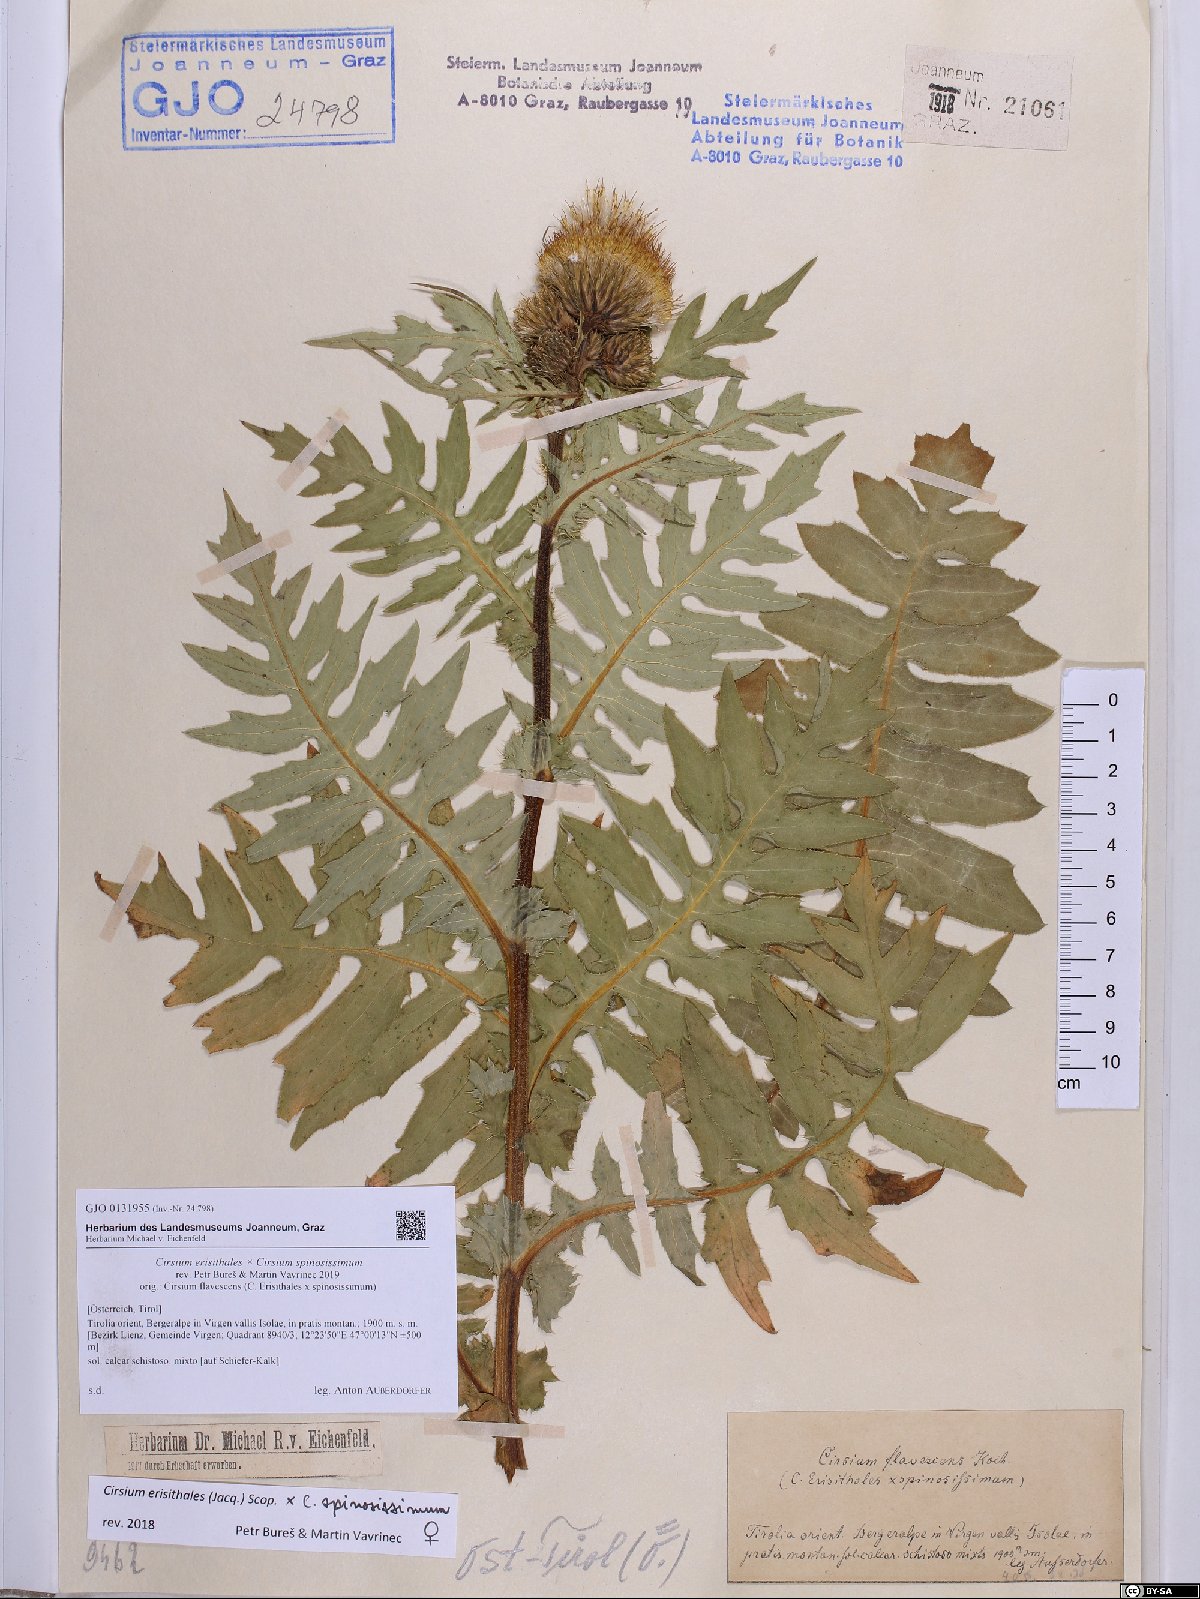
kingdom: Plantae
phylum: Tracheophyta
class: Magnoliopsida
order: Asterales
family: Asteraceae
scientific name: Asteraceae
